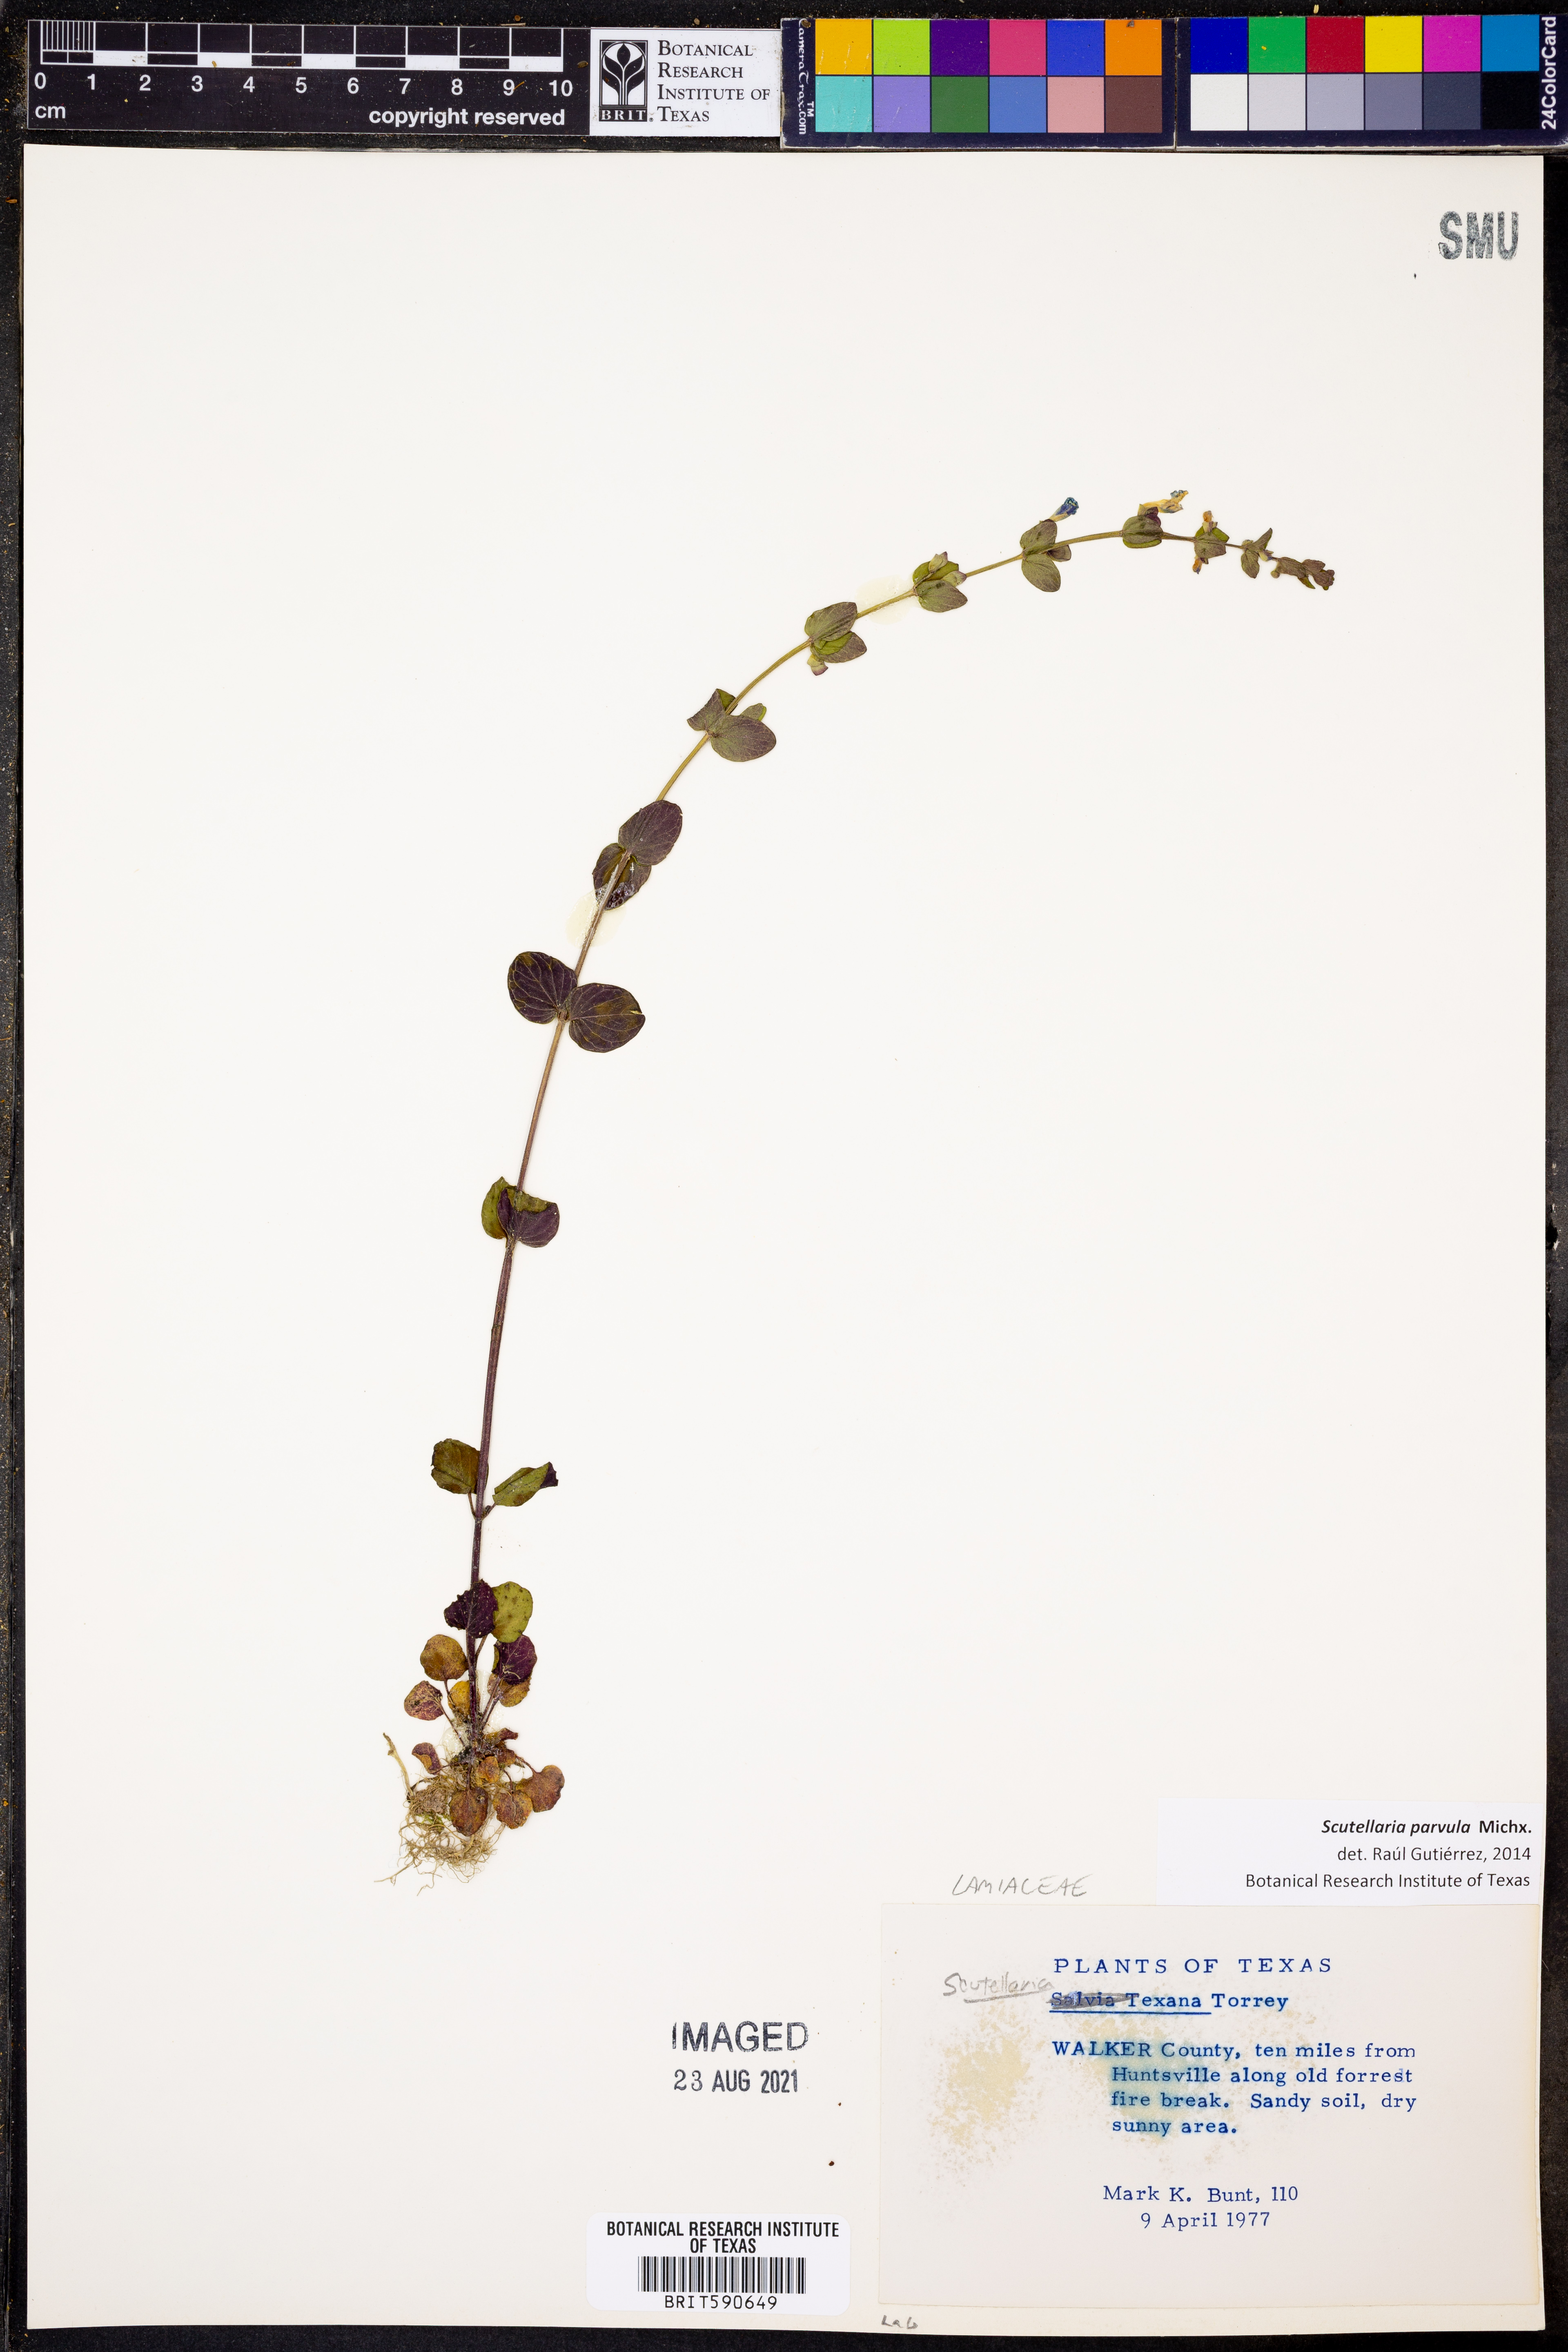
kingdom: Plantae
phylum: Tracheophyta
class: Magnoliopsida
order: Lamiales
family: Lamiaceae
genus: Scutellaria
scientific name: Scutellaria parvula
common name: Little scullcap
